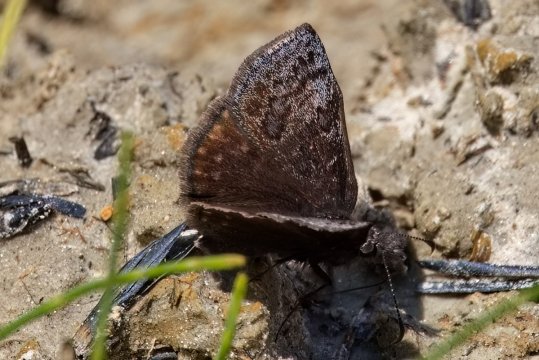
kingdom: Animalia
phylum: Arthropoda
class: Insecta
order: Lepidoptera
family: Hesperiidae
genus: Erynnis
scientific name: Erynnis icelus
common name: Dreamy Duskywing
